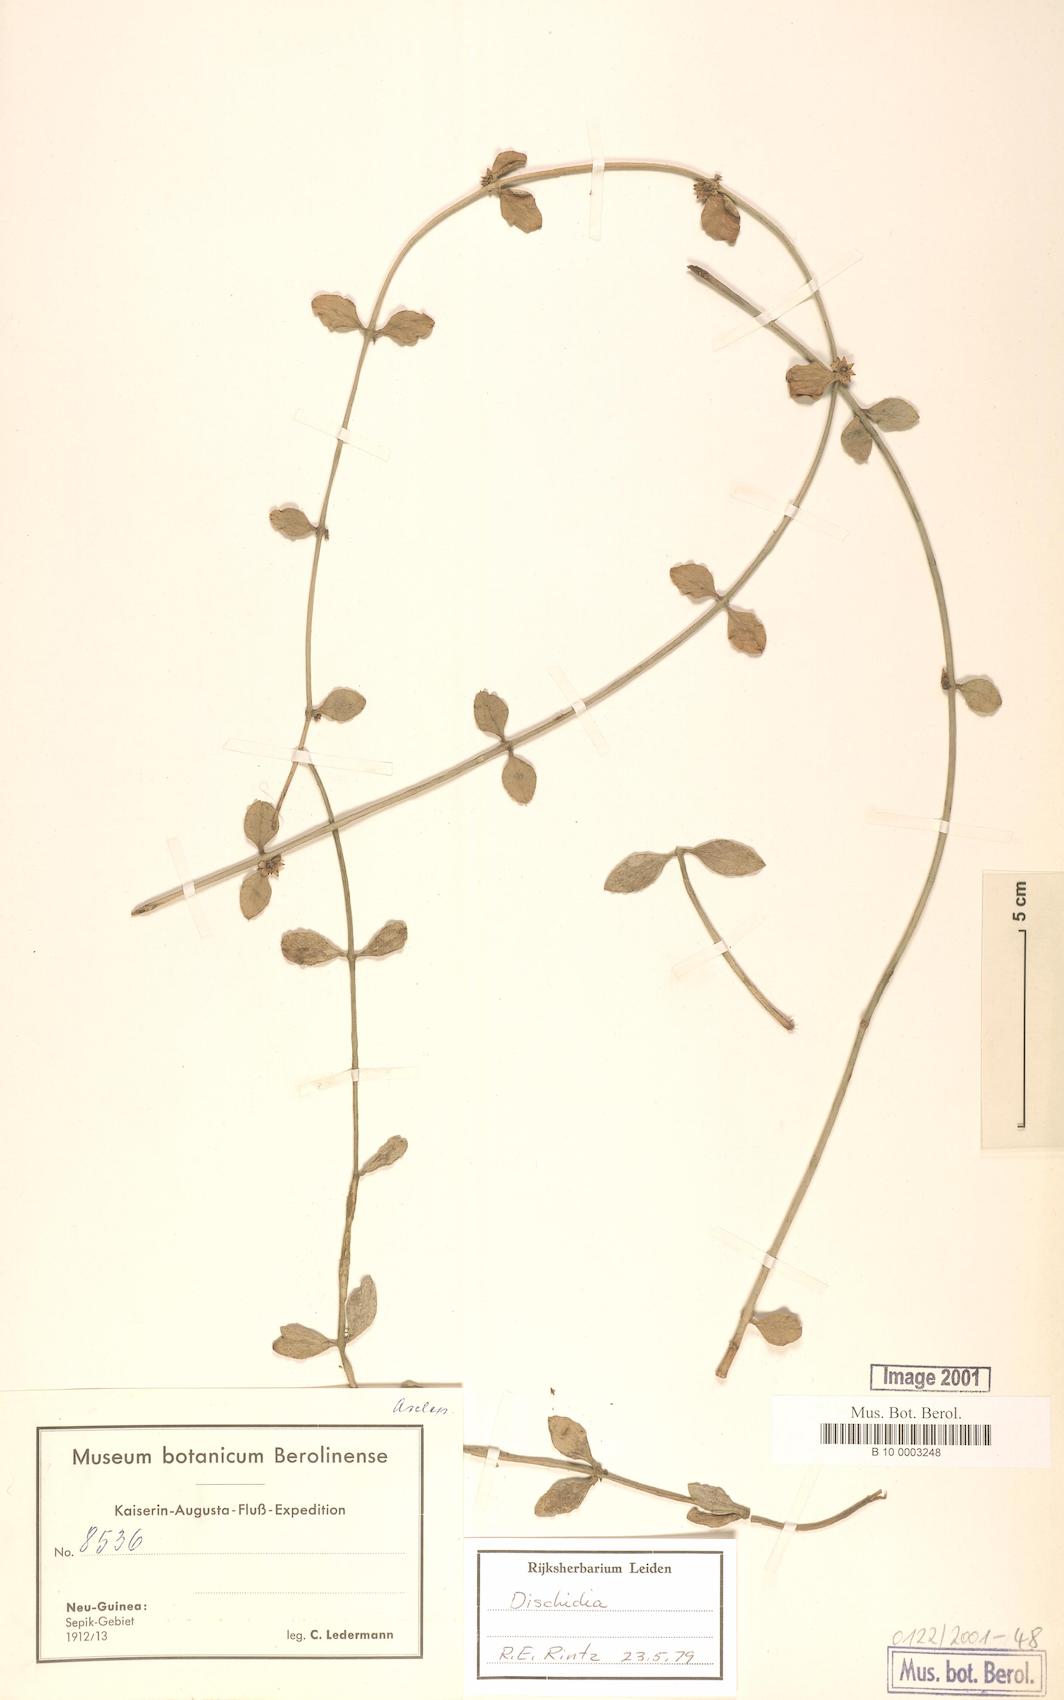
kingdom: Plantae
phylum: Tracheophyta
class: Magnoliopsida
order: Gentianales
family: Apocynaceae
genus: Dischidia
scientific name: Dischidia
